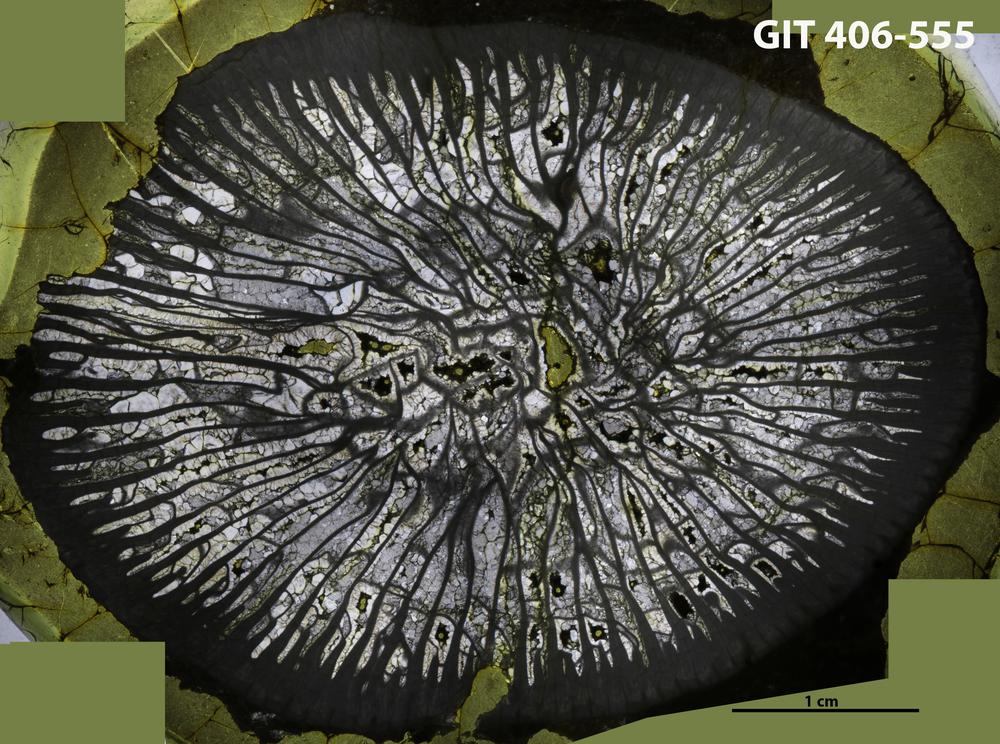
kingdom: Animalia
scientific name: Animalia
